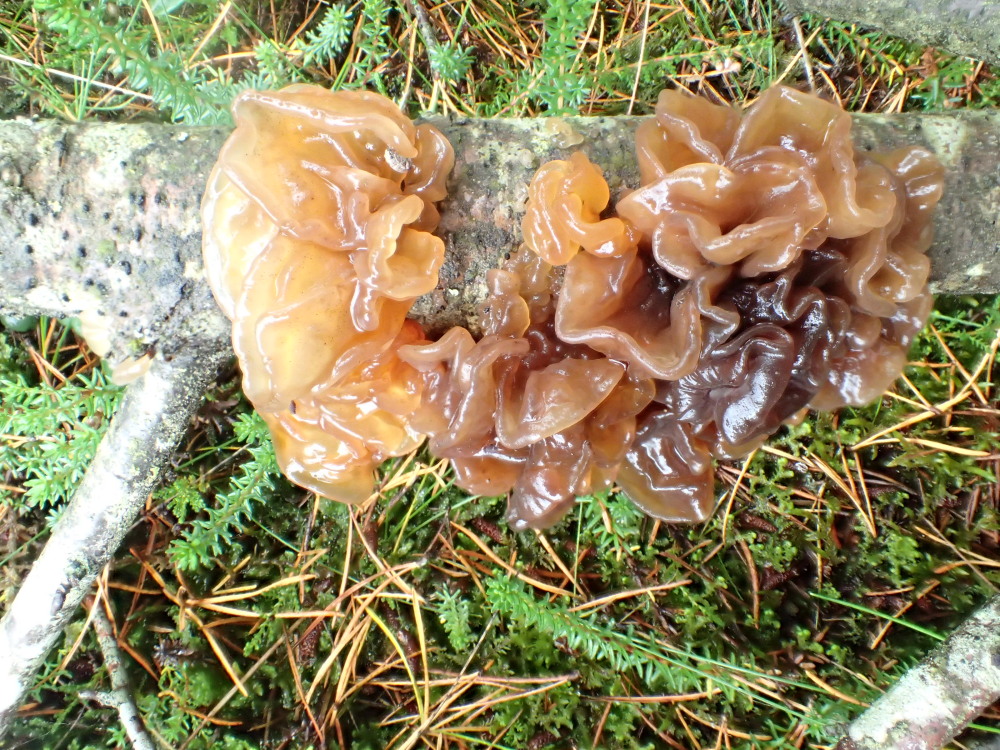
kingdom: Fungi
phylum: Basidiomycota
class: Tremellomycetes
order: Tremellales
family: Tremellaceae
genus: Phaeotremella
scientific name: Phaeotremella frondosa
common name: kæmpe-bævresvamp
